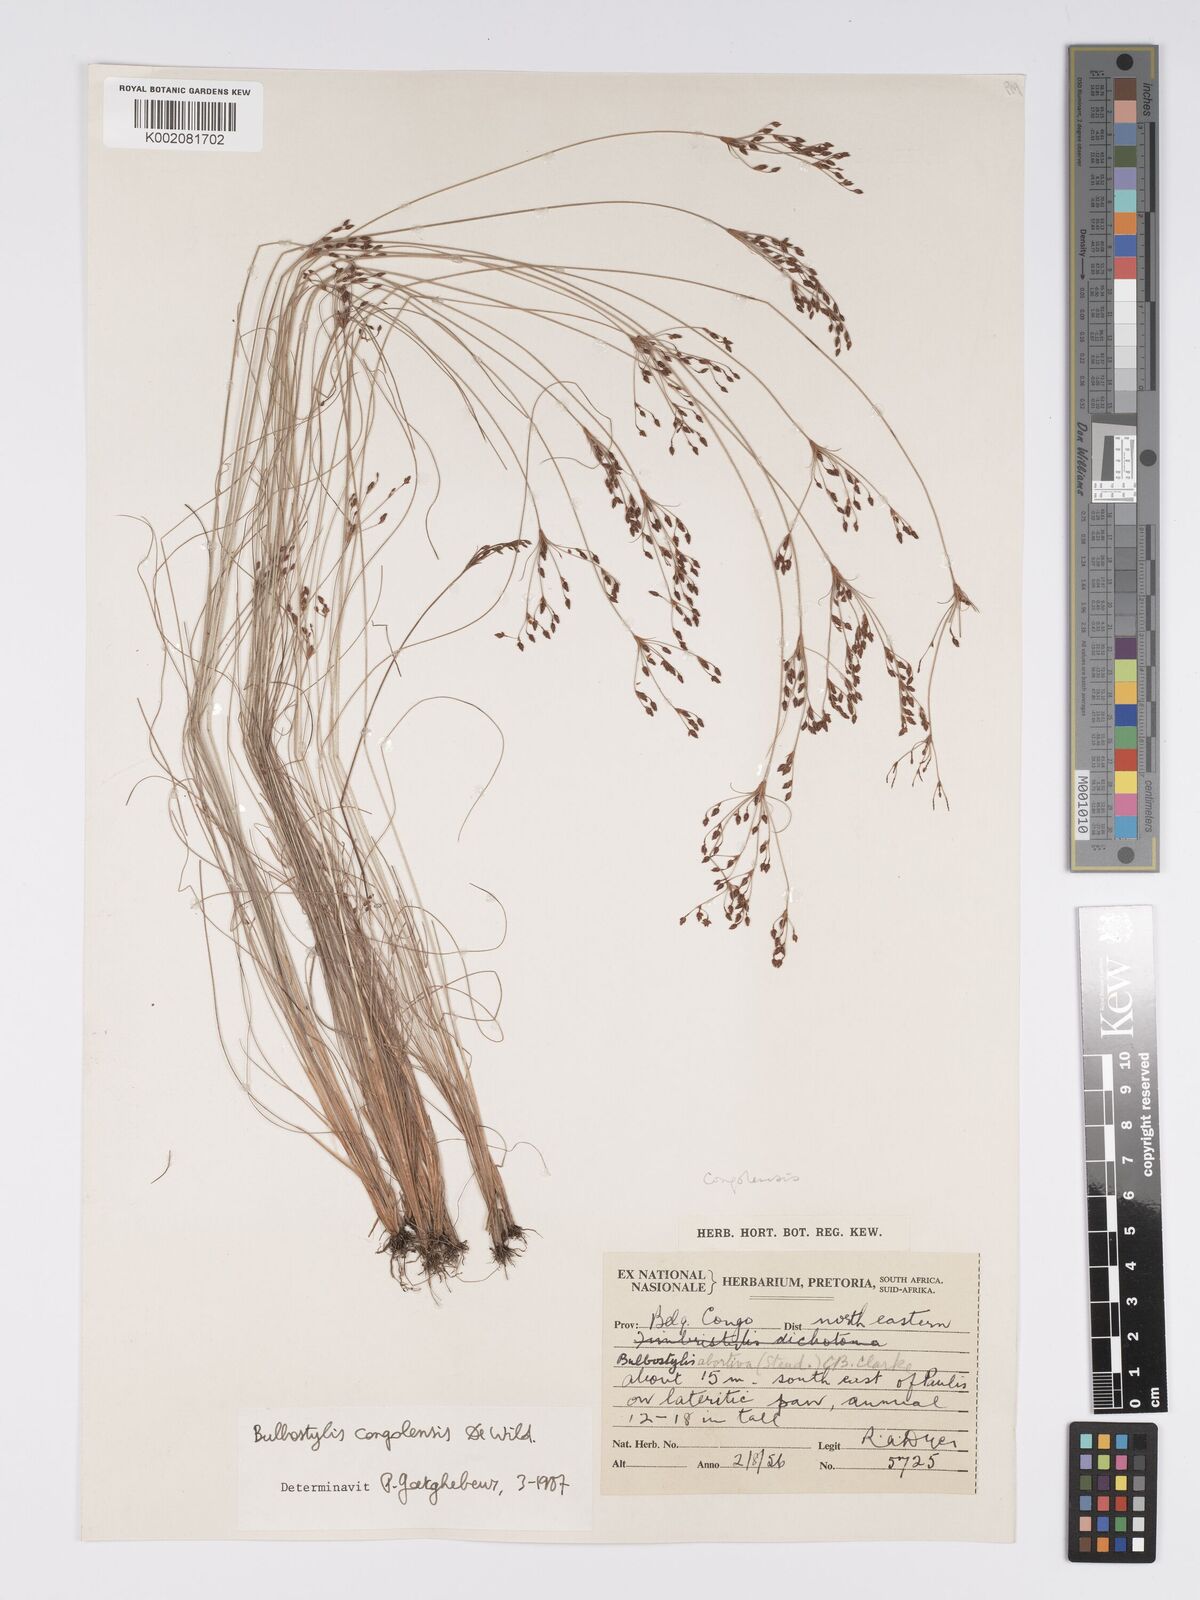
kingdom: Plantae
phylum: Tracheophyta
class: Liliopsida
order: Poales
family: Cyperaceae
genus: Bulbostylis
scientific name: Bulbostylis congolensis
